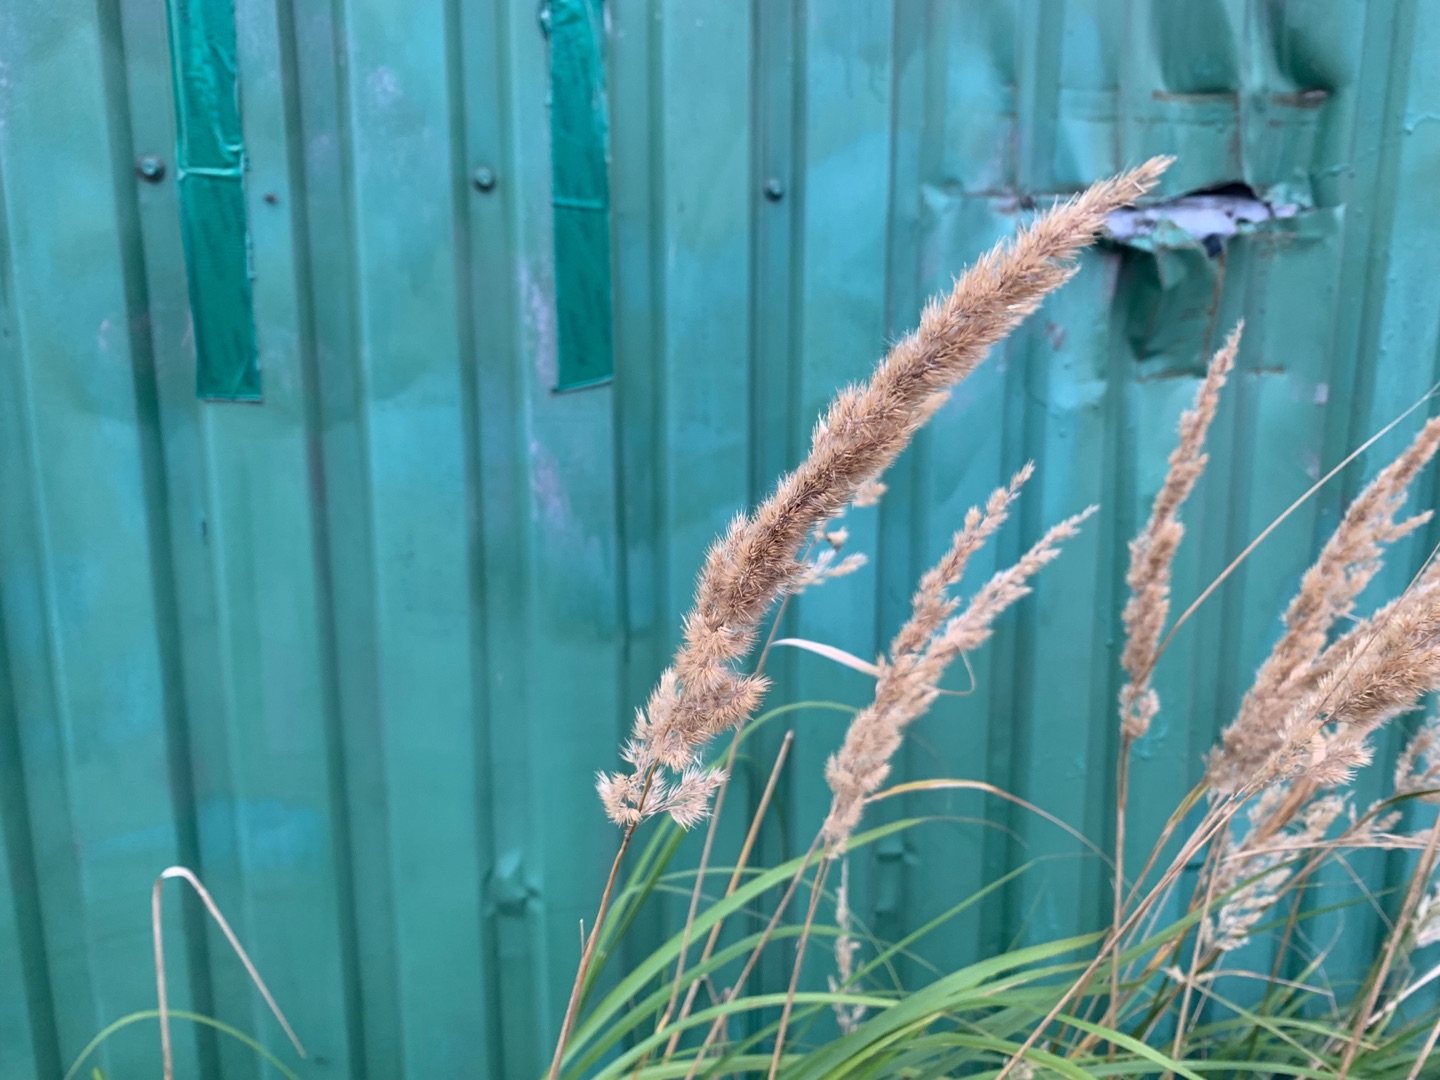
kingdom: Plantae
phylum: Tracheophyta
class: Liliopsida
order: Poales
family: Poaceae
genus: Calamagrostis
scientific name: Calamagrostis
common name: Rørhveneslægten
